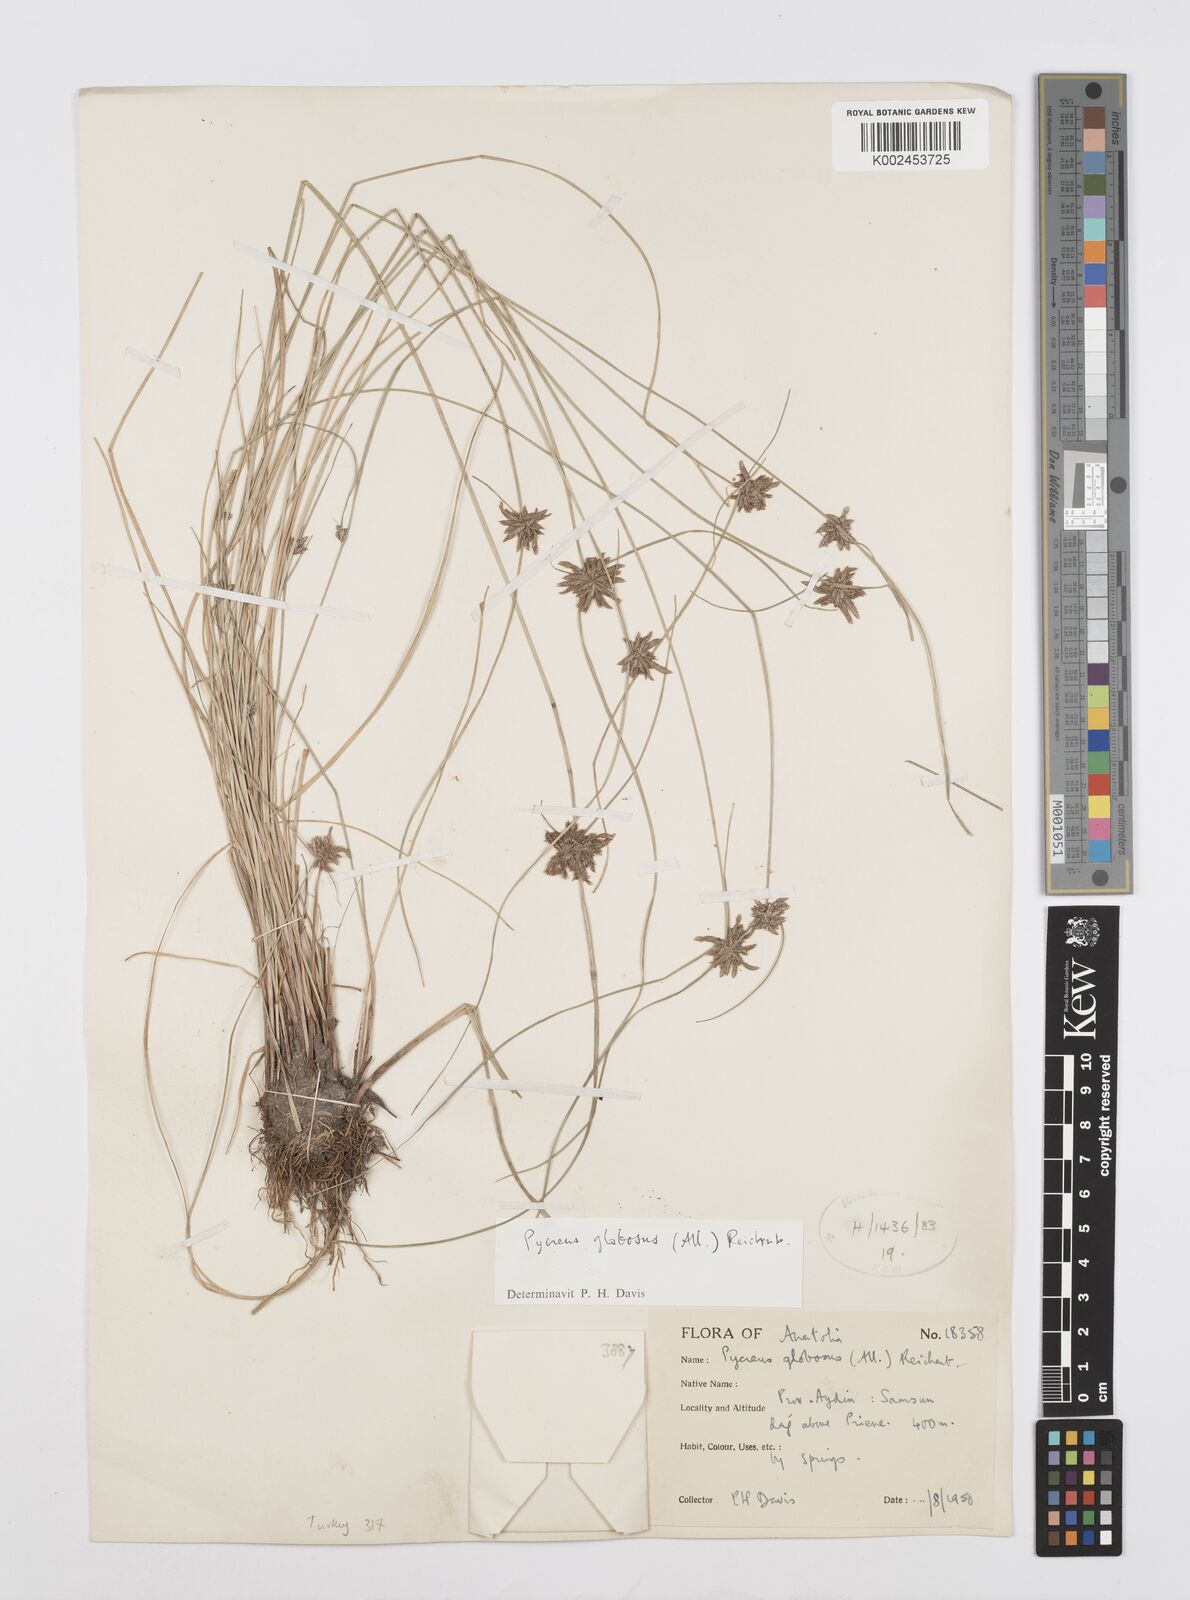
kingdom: Plantae
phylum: Tracheophyta
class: Liliopsida
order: Poales
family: Cyperaceae
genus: Cyperus
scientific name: Cyperus flavidus
